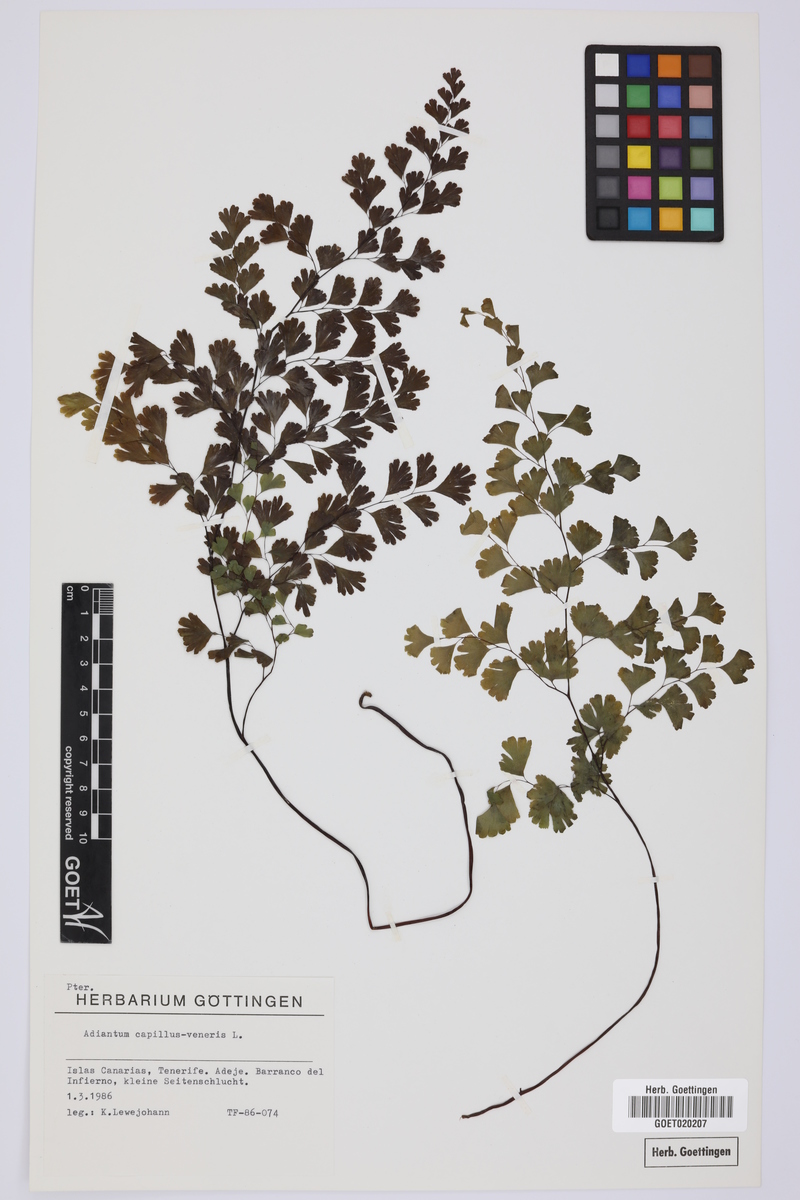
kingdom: Plantae
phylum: Tracheophyta
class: Polypodiopsida
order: Polypodiales
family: Pteridaceae
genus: Adiantum
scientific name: Adiantum capillus-veneris
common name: Maidenhair fern
